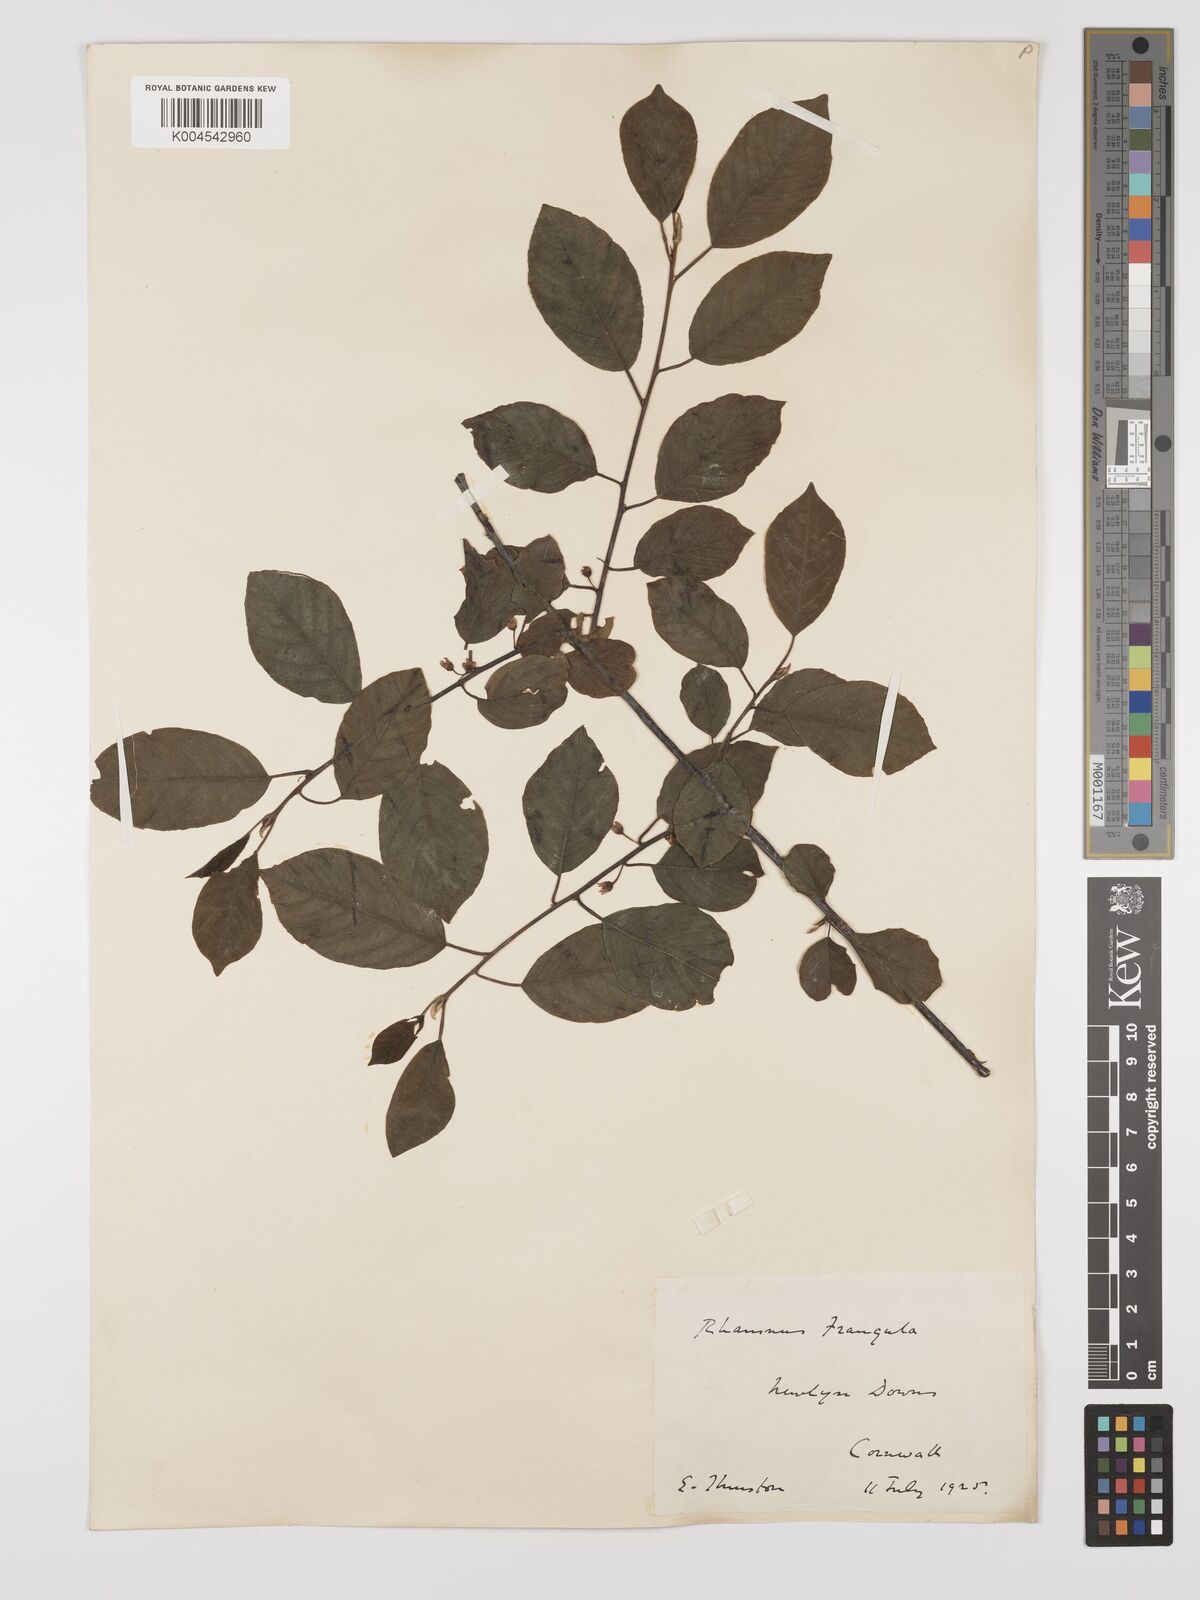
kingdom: Plantae
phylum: Tracheophyta
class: Magnoliopsida
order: Rosales
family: Rhamnaceae
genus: Frangula
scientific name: Frangula alnus
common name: Alder buckthorn
